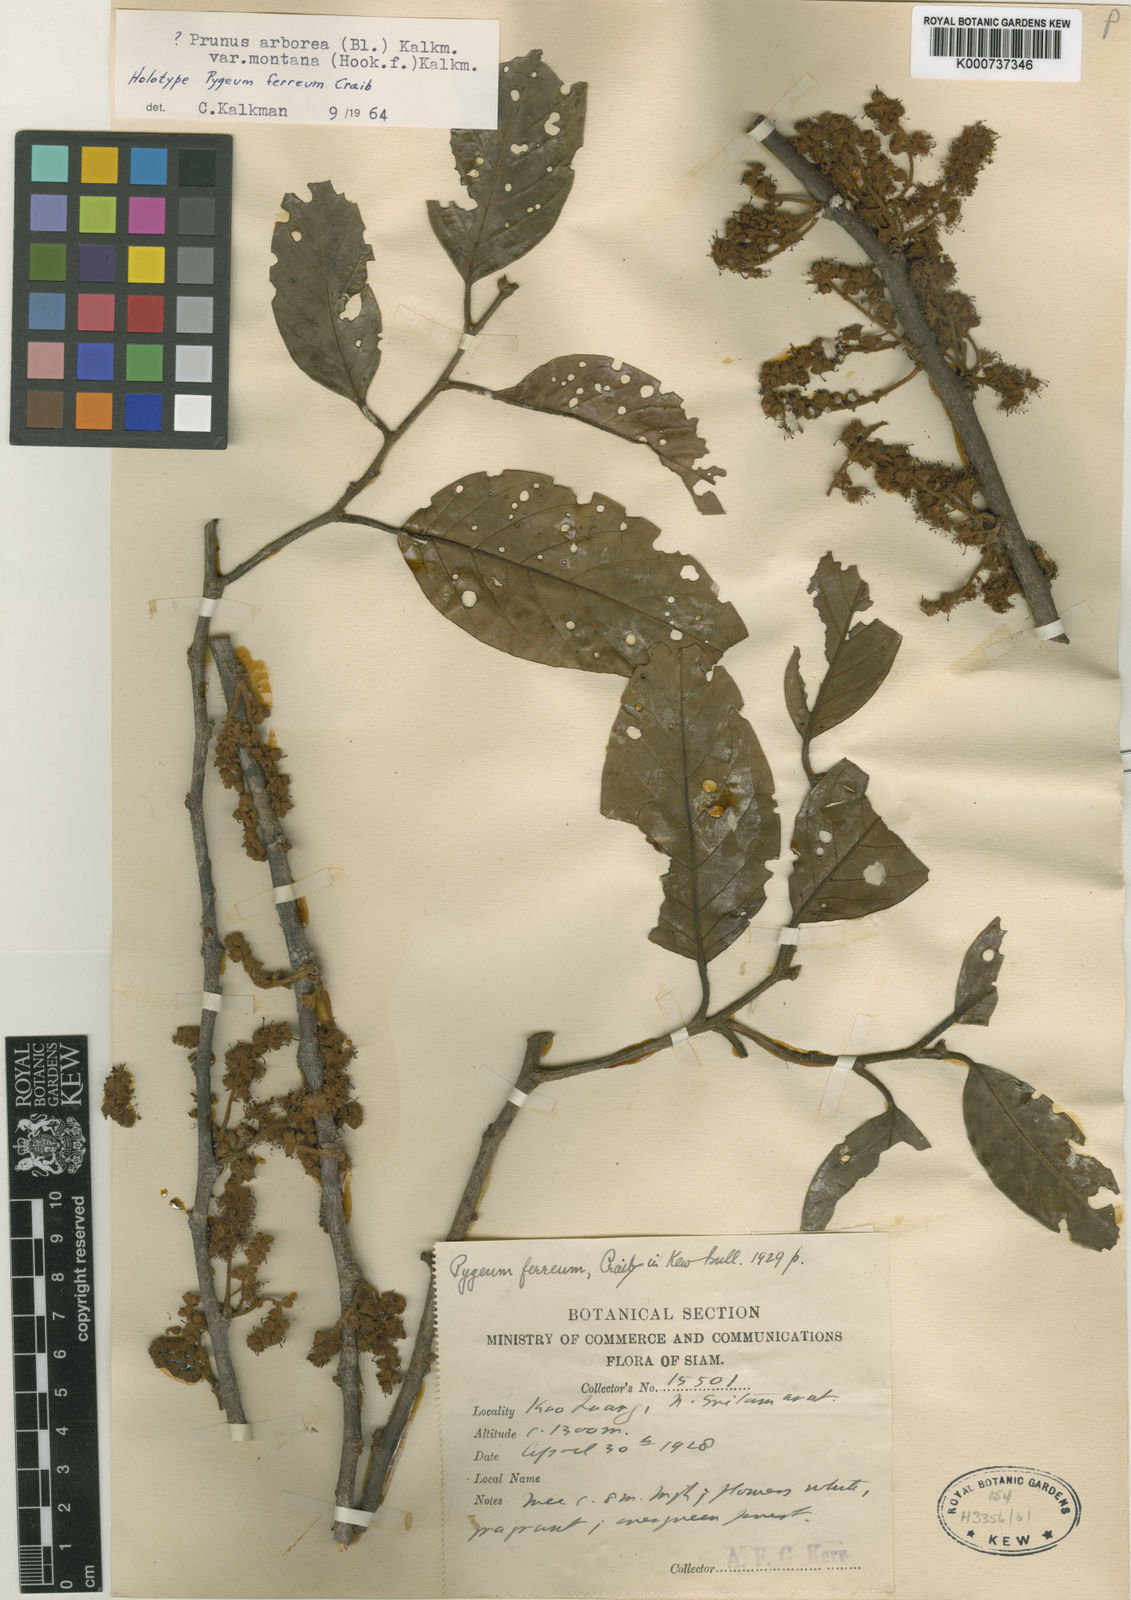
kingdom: Plantae
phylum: Tracheophyta
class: Magnoliopsida
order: Rosales
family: Rosaceae
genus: Prunus
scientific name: Prunus arborea
